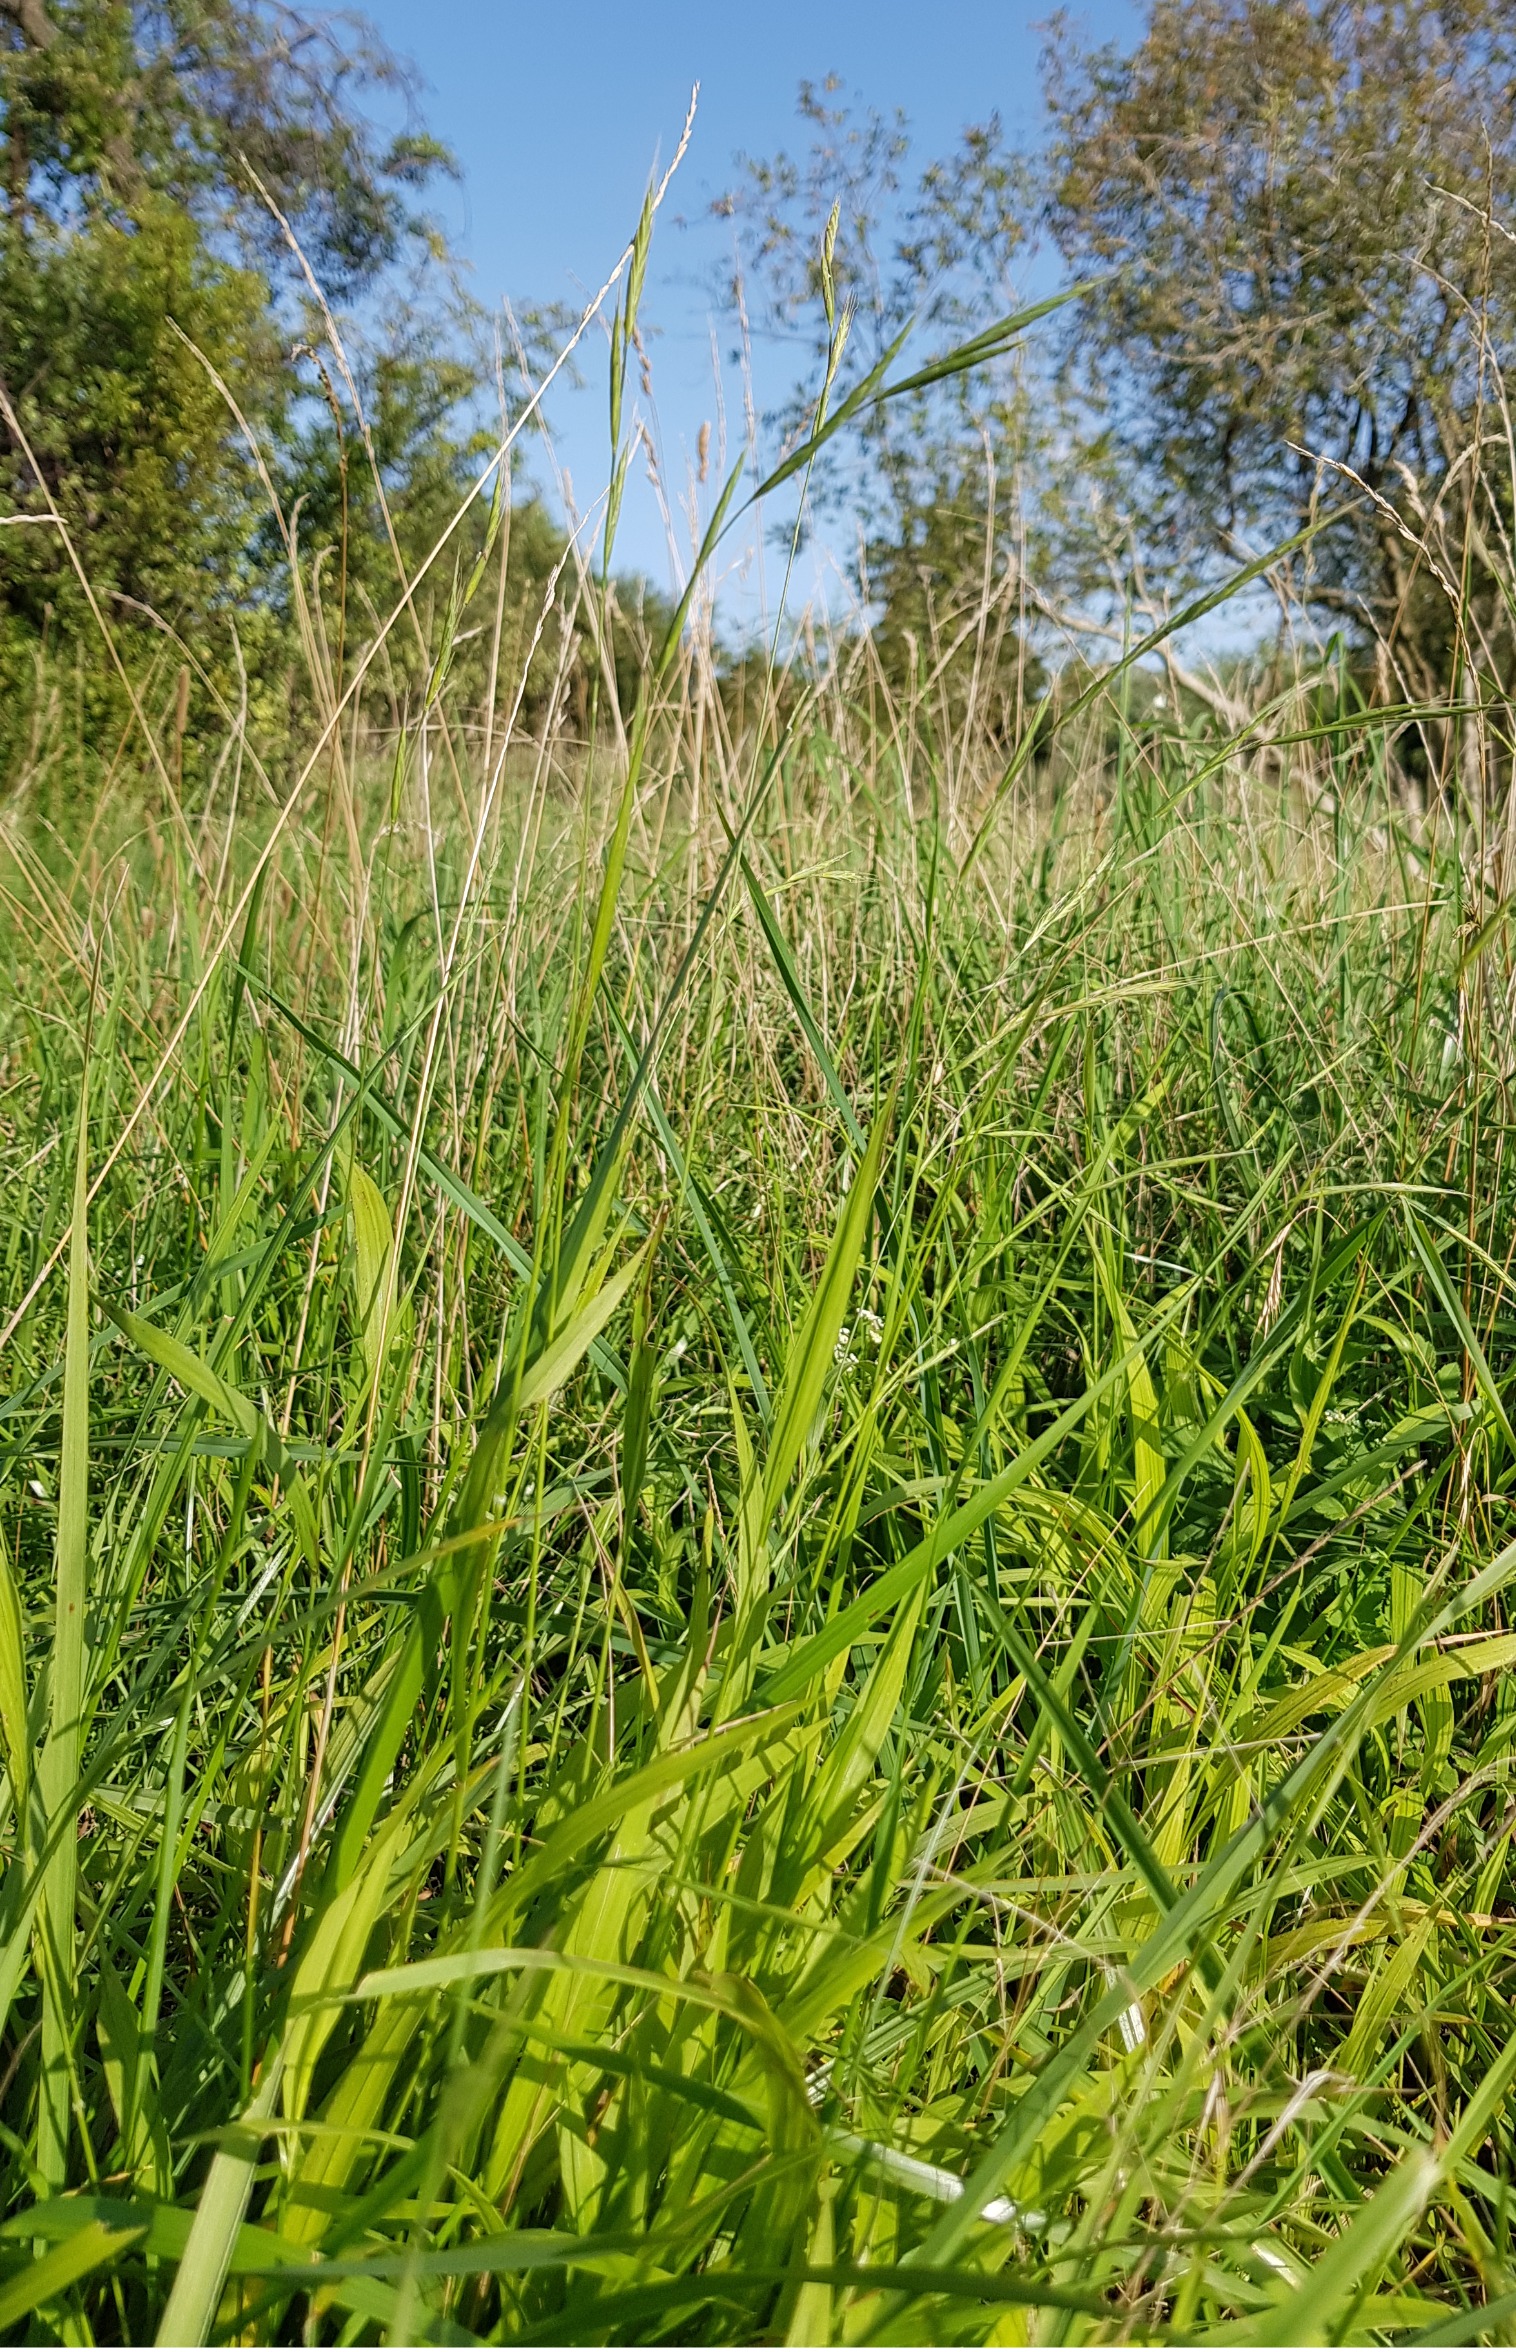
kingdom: Plantae
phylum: Tracheophyta
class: Liliopsida
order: Poales
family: Poaceae
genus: Brachypodium
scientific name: Brachypodium sylvaticum
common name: Skov-stilkaks
